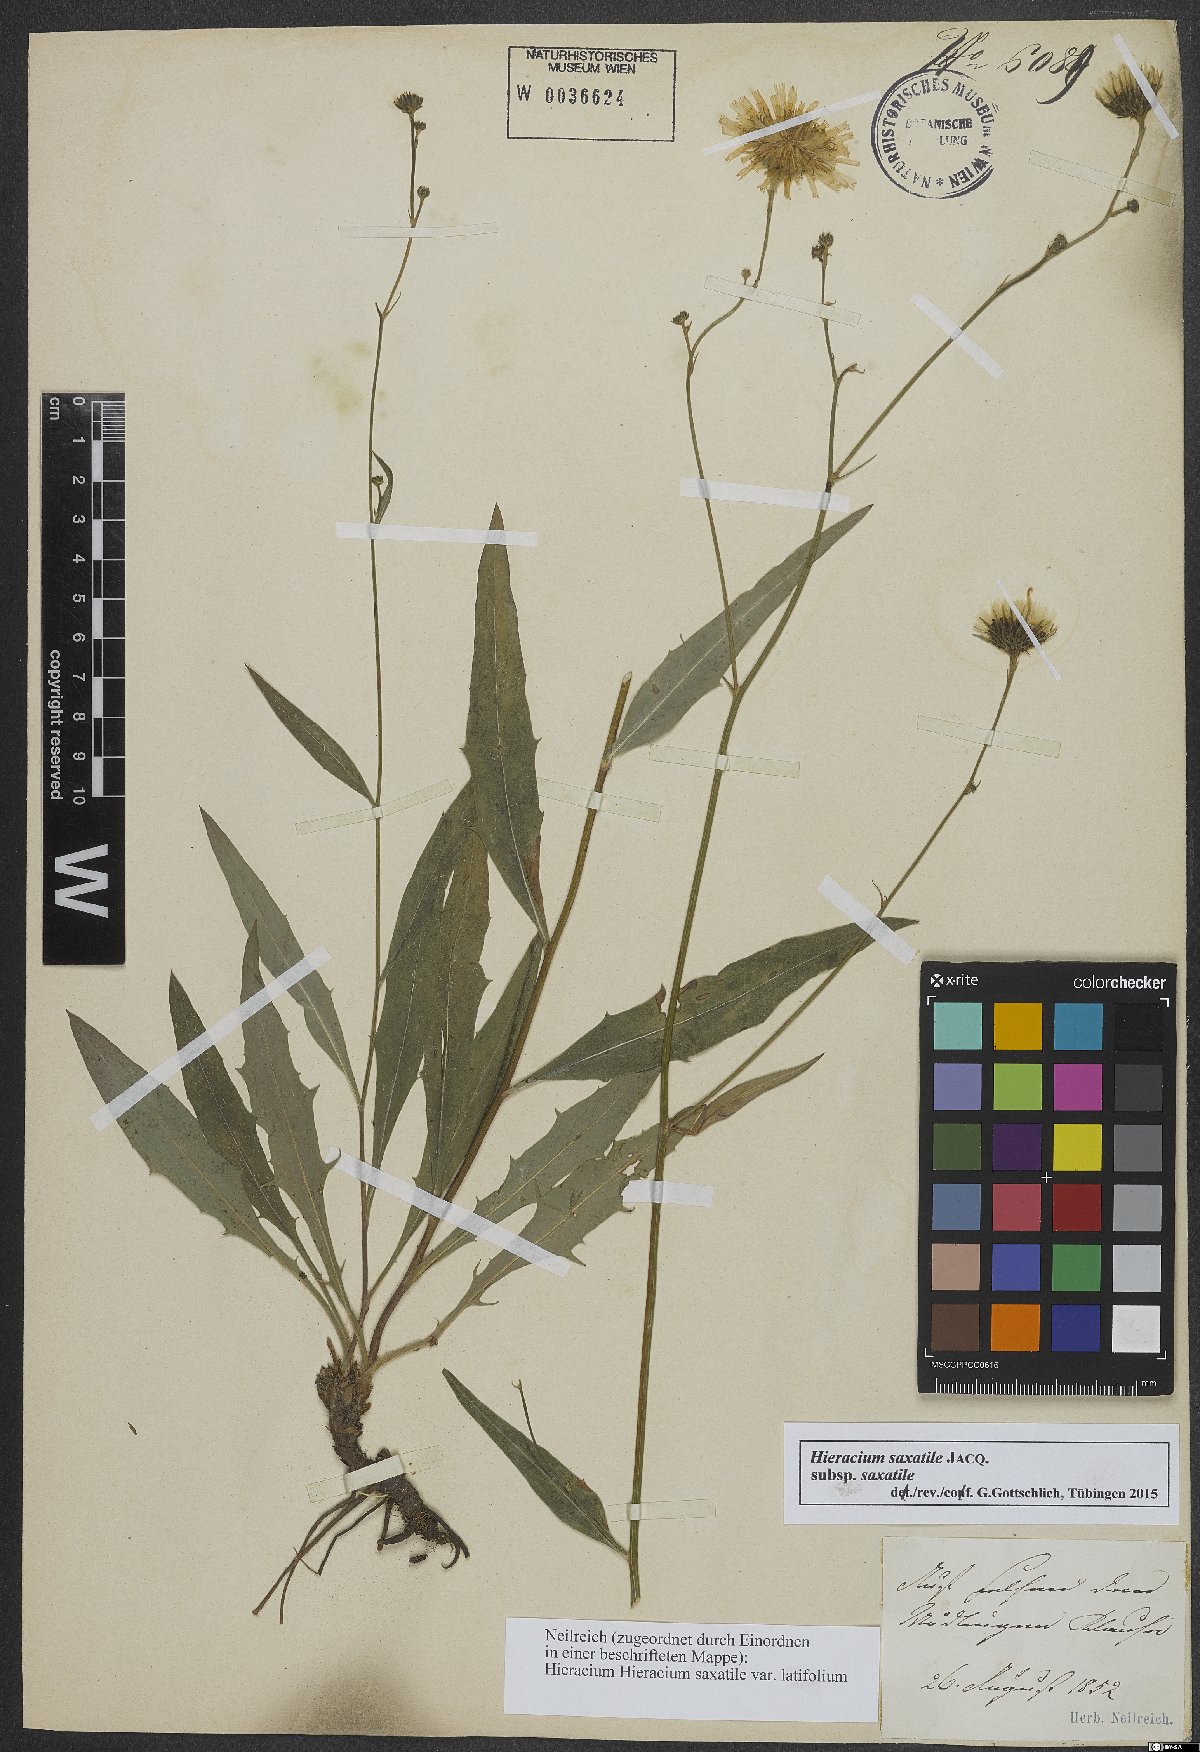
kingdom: Plantae
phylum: Tracheophyta
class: Magnoliopsida
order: Asterales
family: Asteraceae
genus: Hieracium
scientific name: Hieracium saxatile
